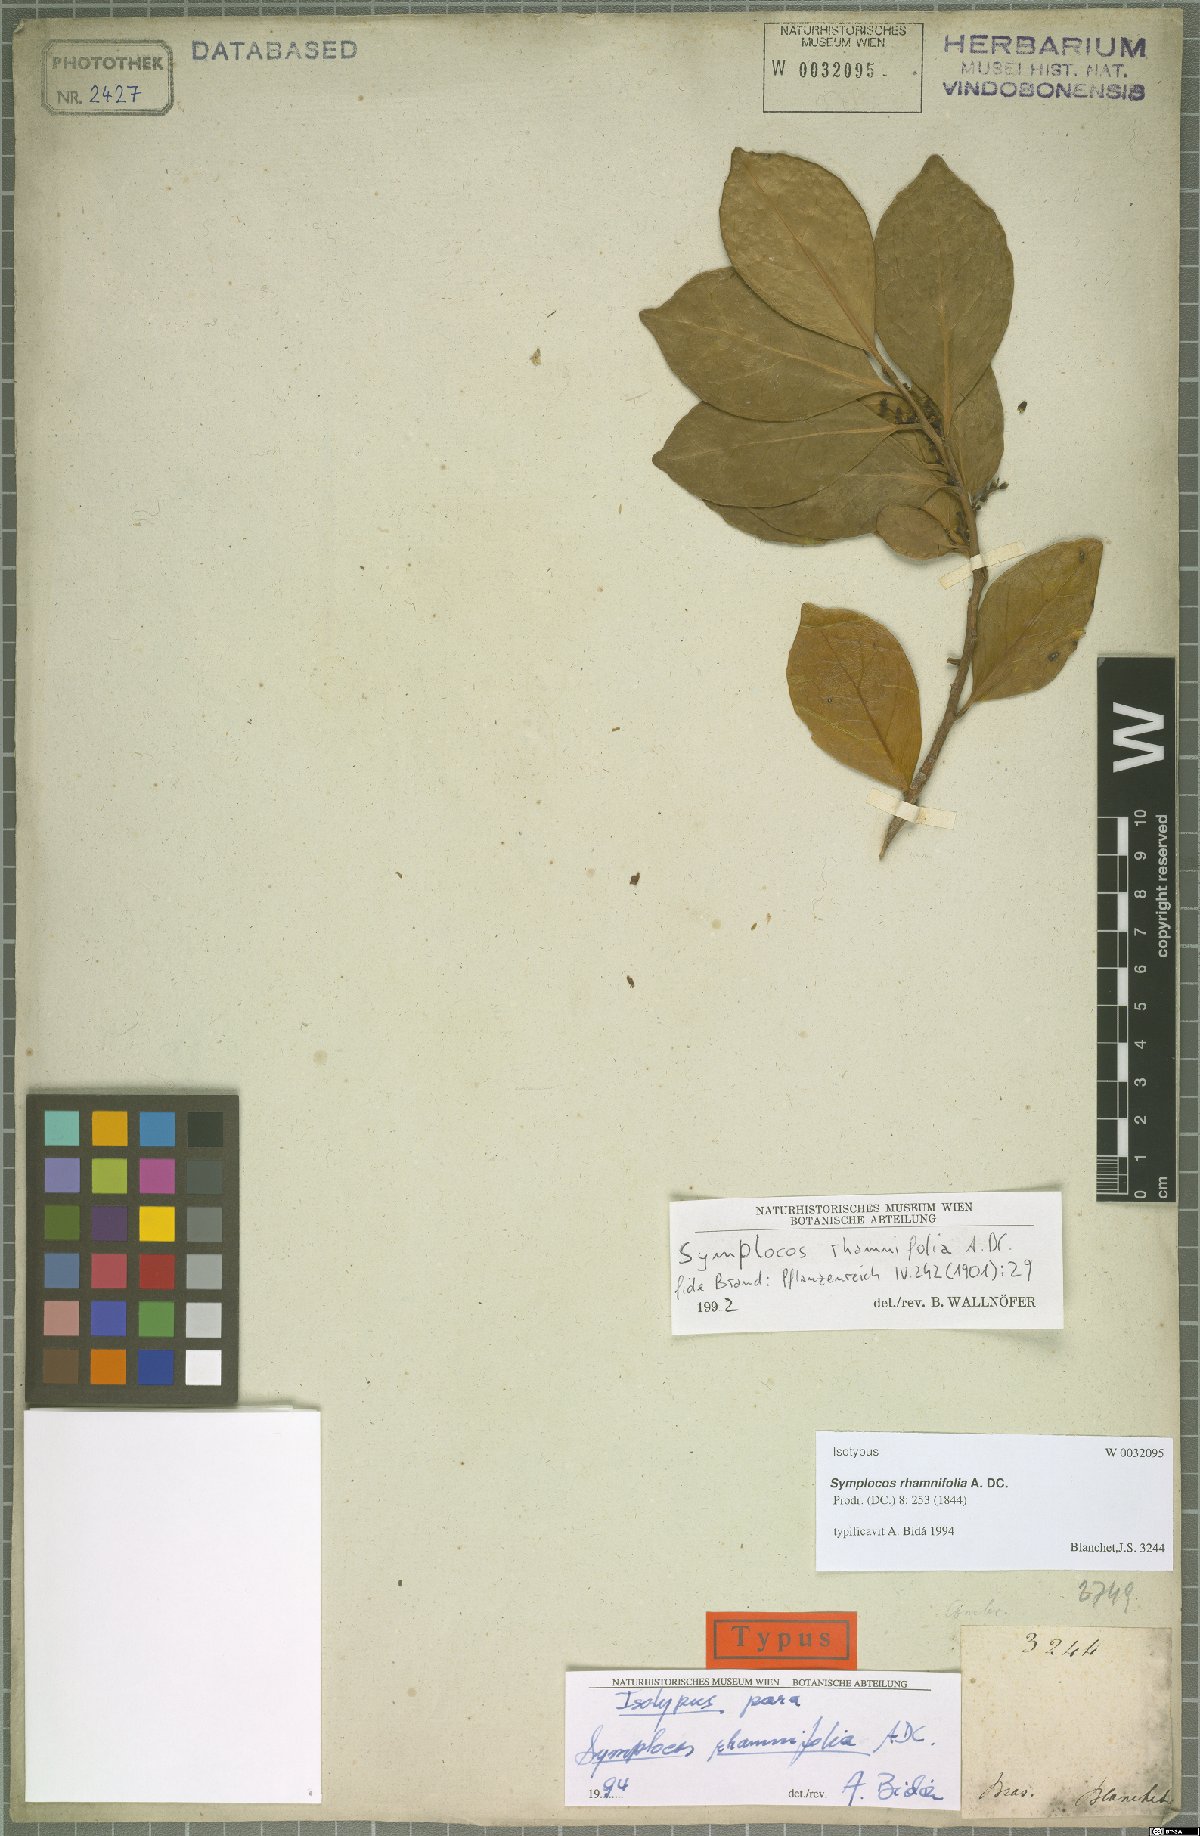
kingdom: Plantae
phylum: Tracheophyta
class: Magnoliopsida
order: Ericales
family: Symplocaceae
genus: Symplocos
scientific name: Symplocos rhamnifolia
